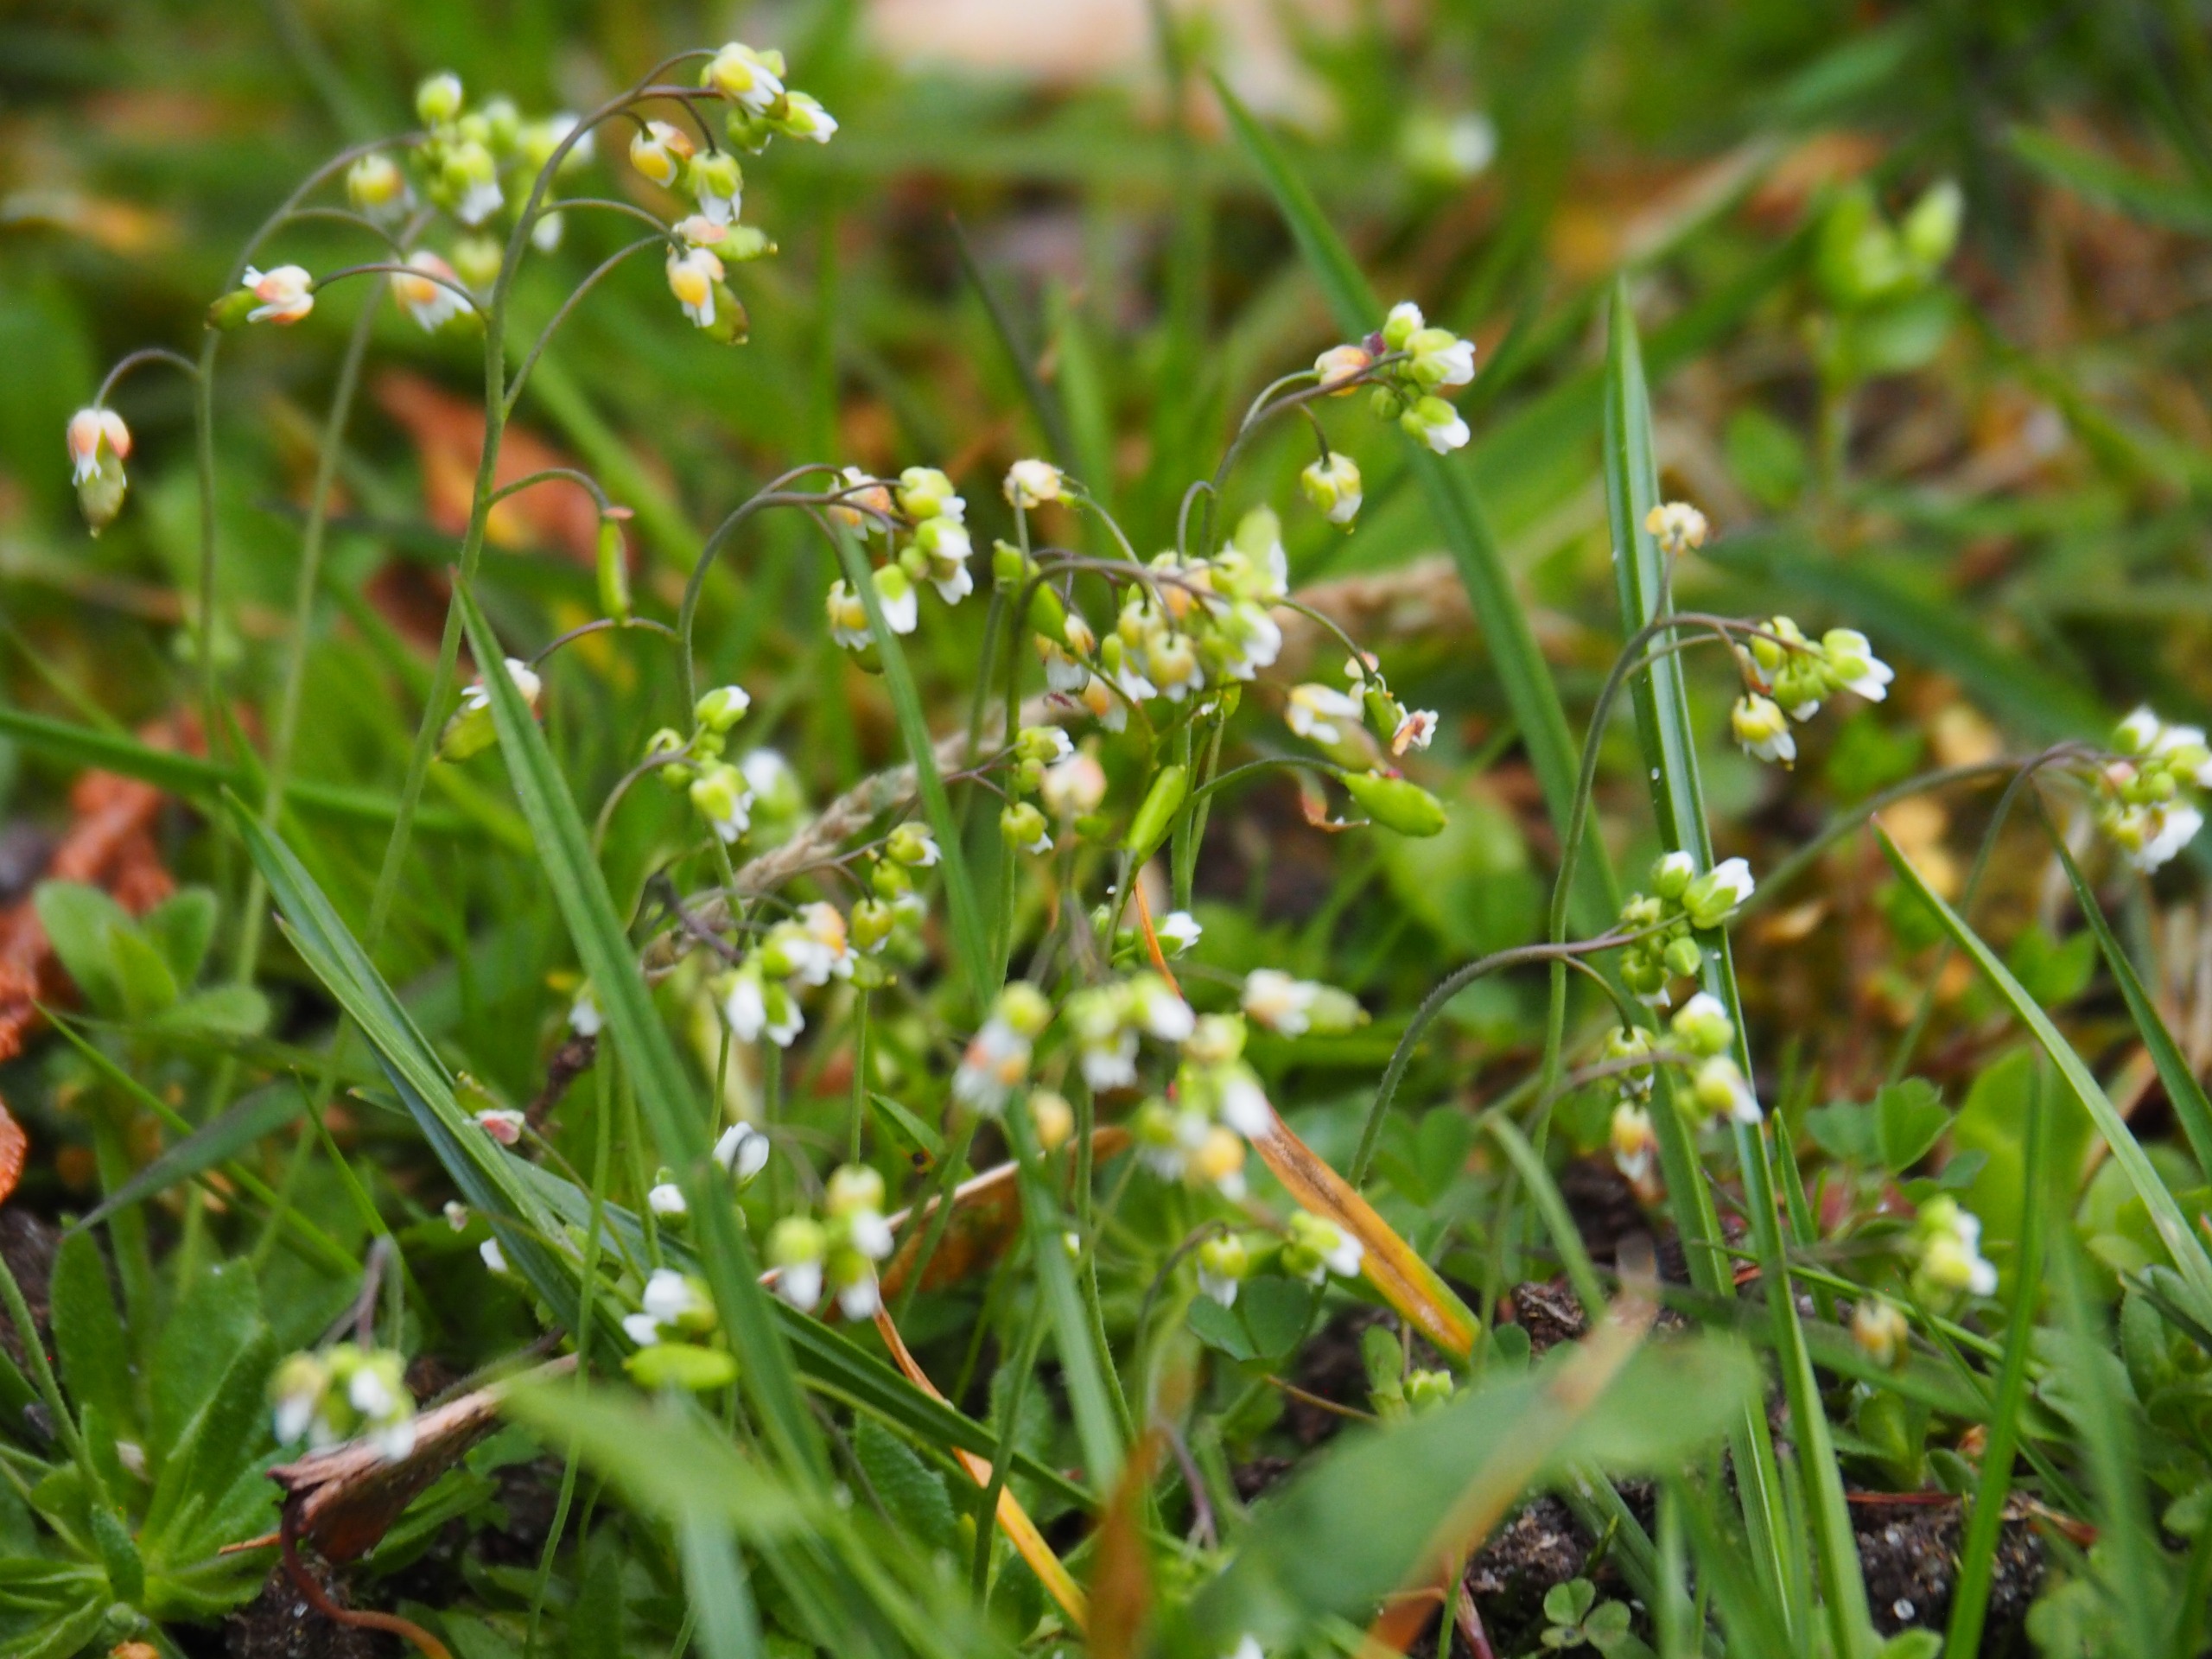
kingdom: Plantae
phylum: Tracheophyta
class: Magnoliopsida
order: Brassicales
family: Brassicaceae
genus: Draba
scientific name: Draba verna
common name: Vår-gæslingeblomst
